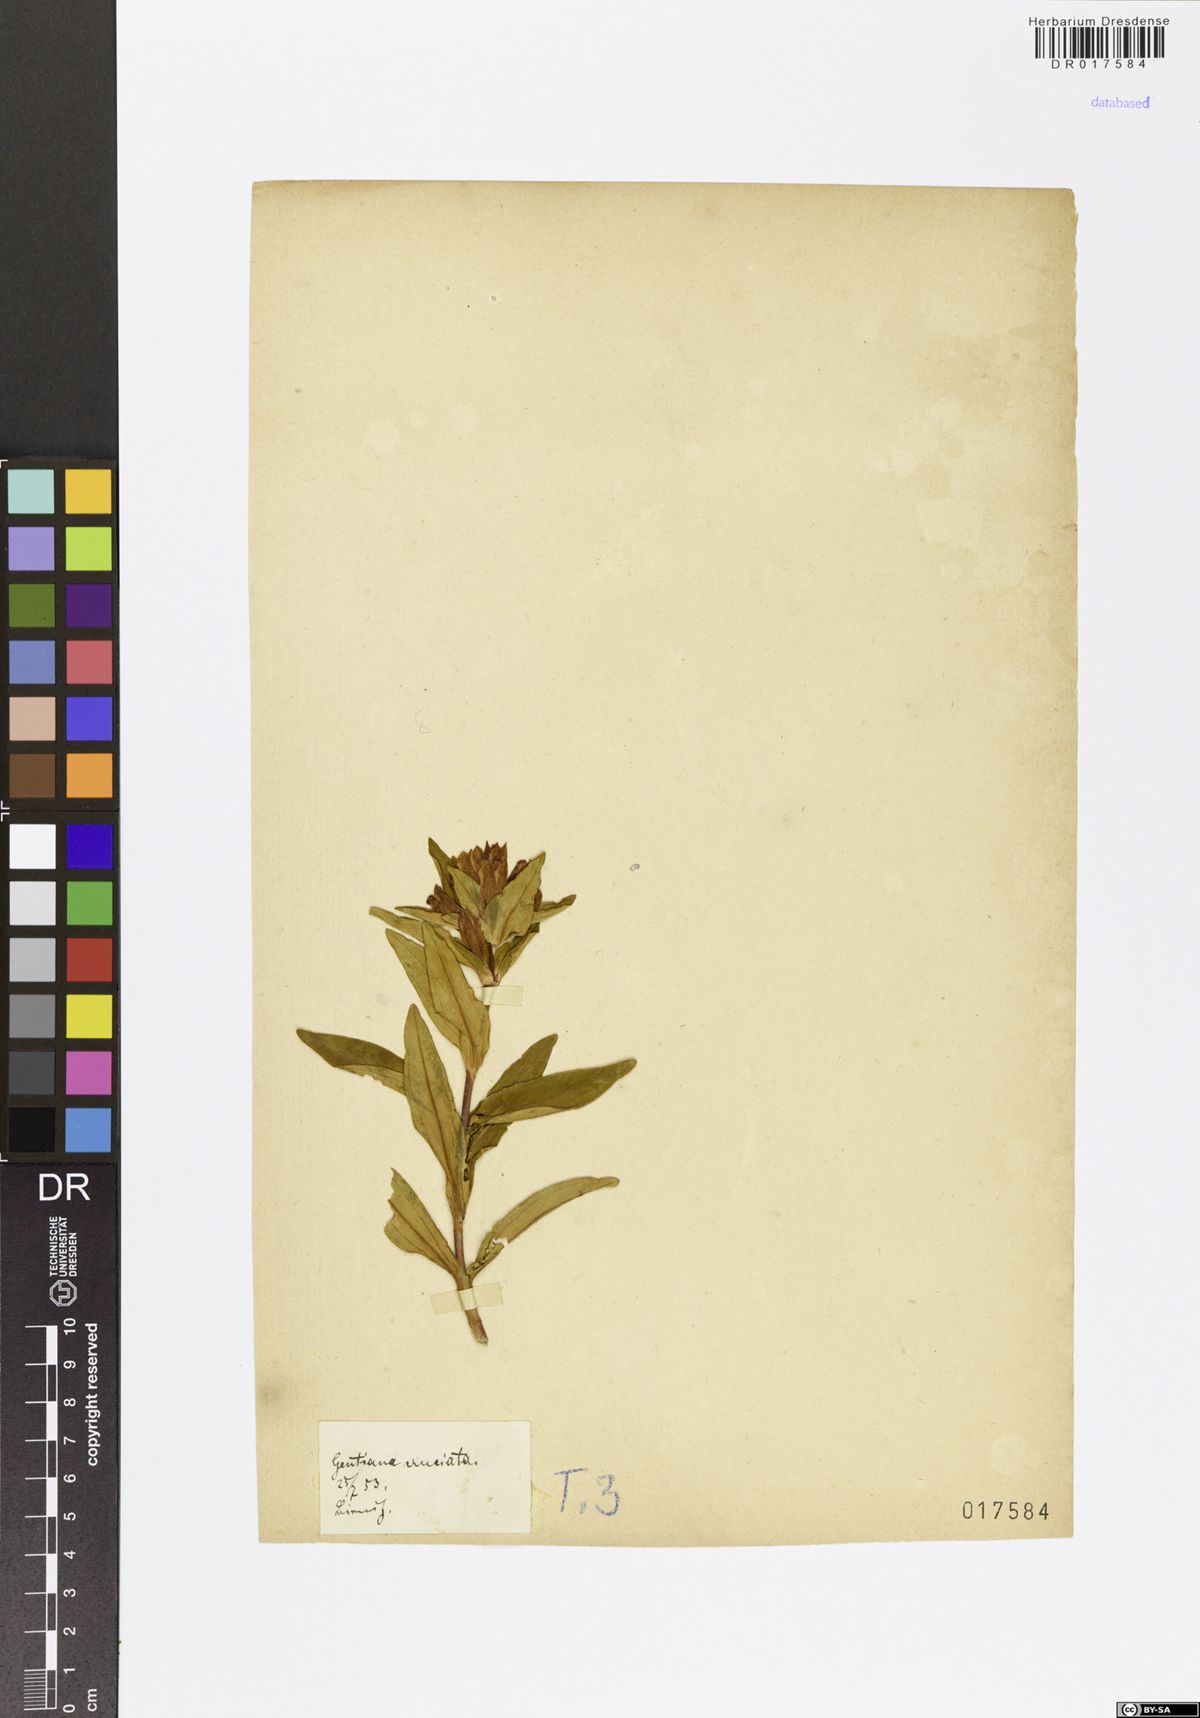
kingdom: Plantae
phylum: Tracheophyta
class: Magnoliopsida
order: Gentianales
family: Gentianaceae
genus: Gentiana
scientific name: Gentiana cruciata
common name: Cross gentian
